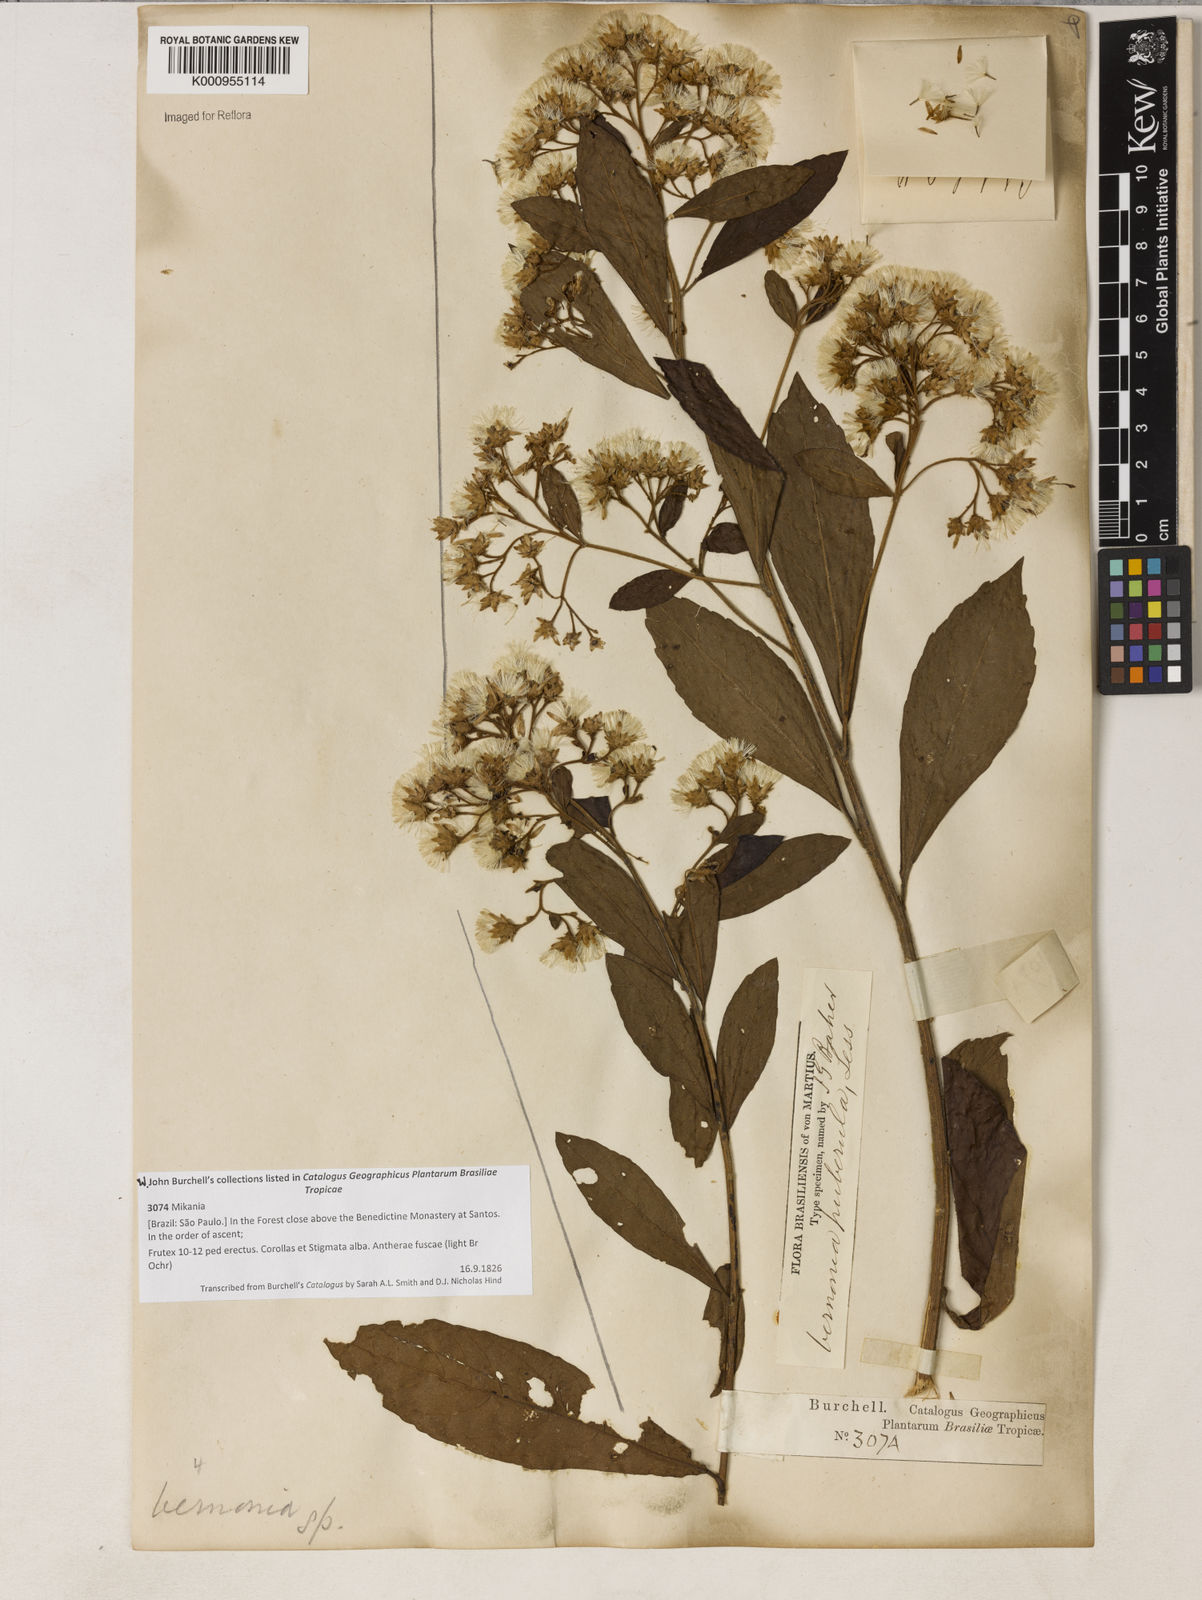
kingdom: Plantae
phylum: Tracheophyta
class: Magnoliopsida
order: Asterales
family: Asteraceae
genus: Vernonanthura
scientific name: Vernonanthura puberula
